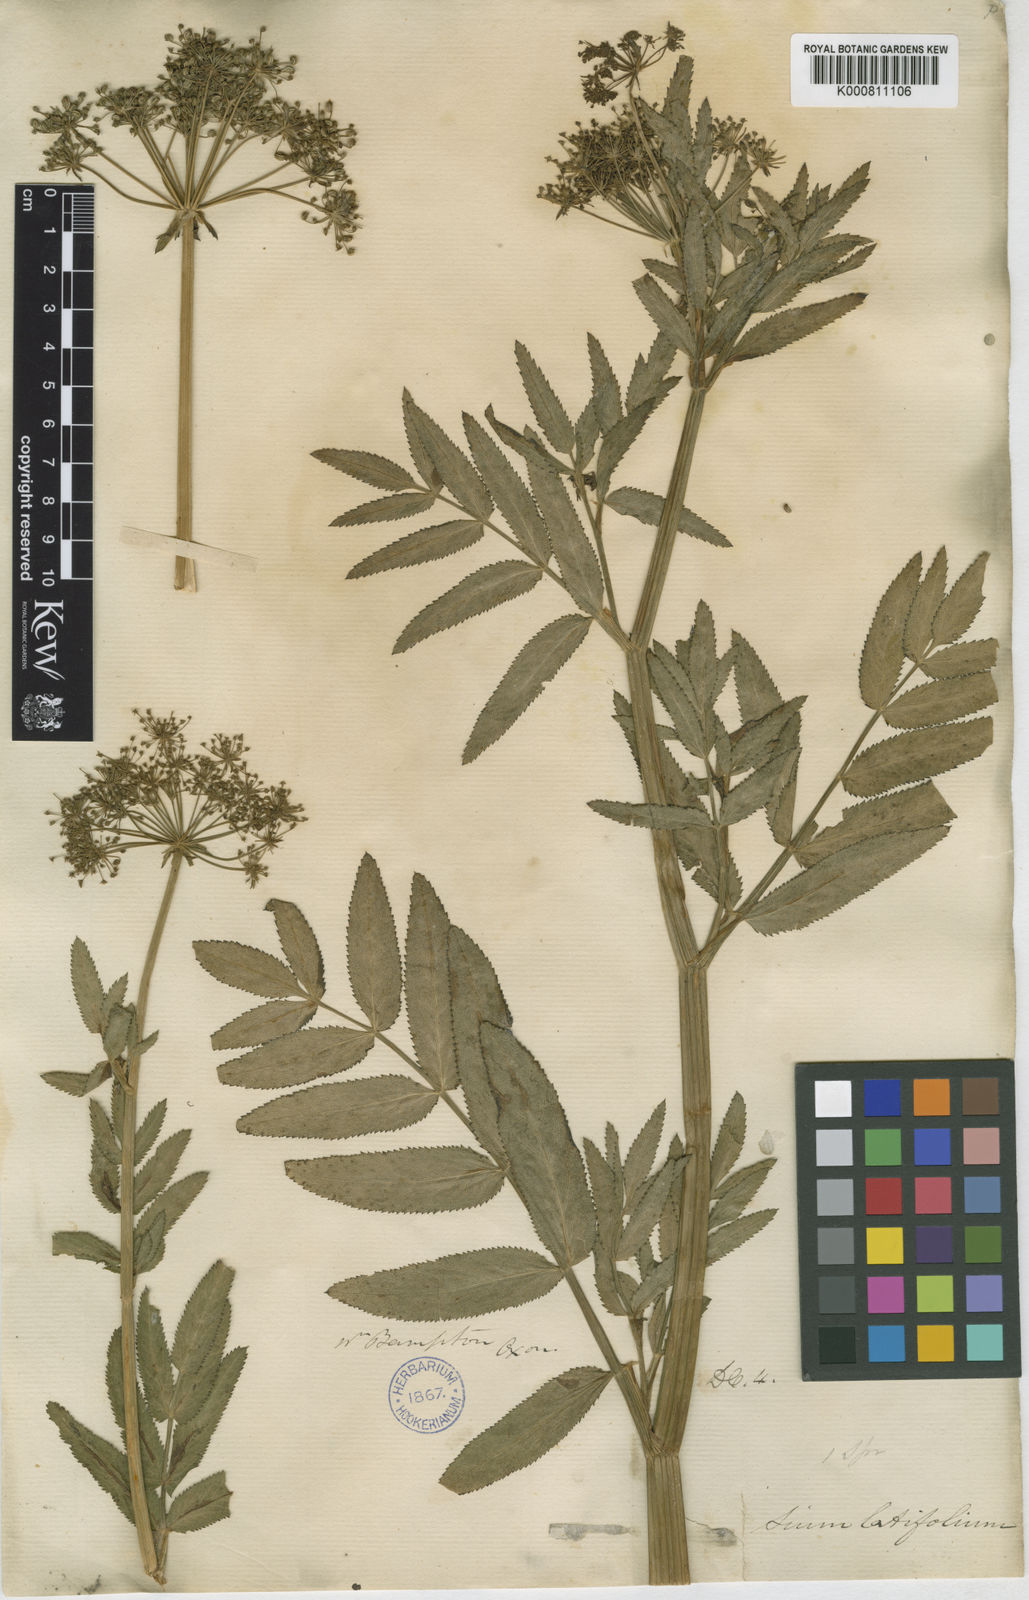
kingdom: Plantae
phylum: Tracheophyta
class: Magnoliopsida
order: Apiales
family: Apiaceae
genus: Sium
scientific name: Sium latifolium
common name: Greater water-parsnip
